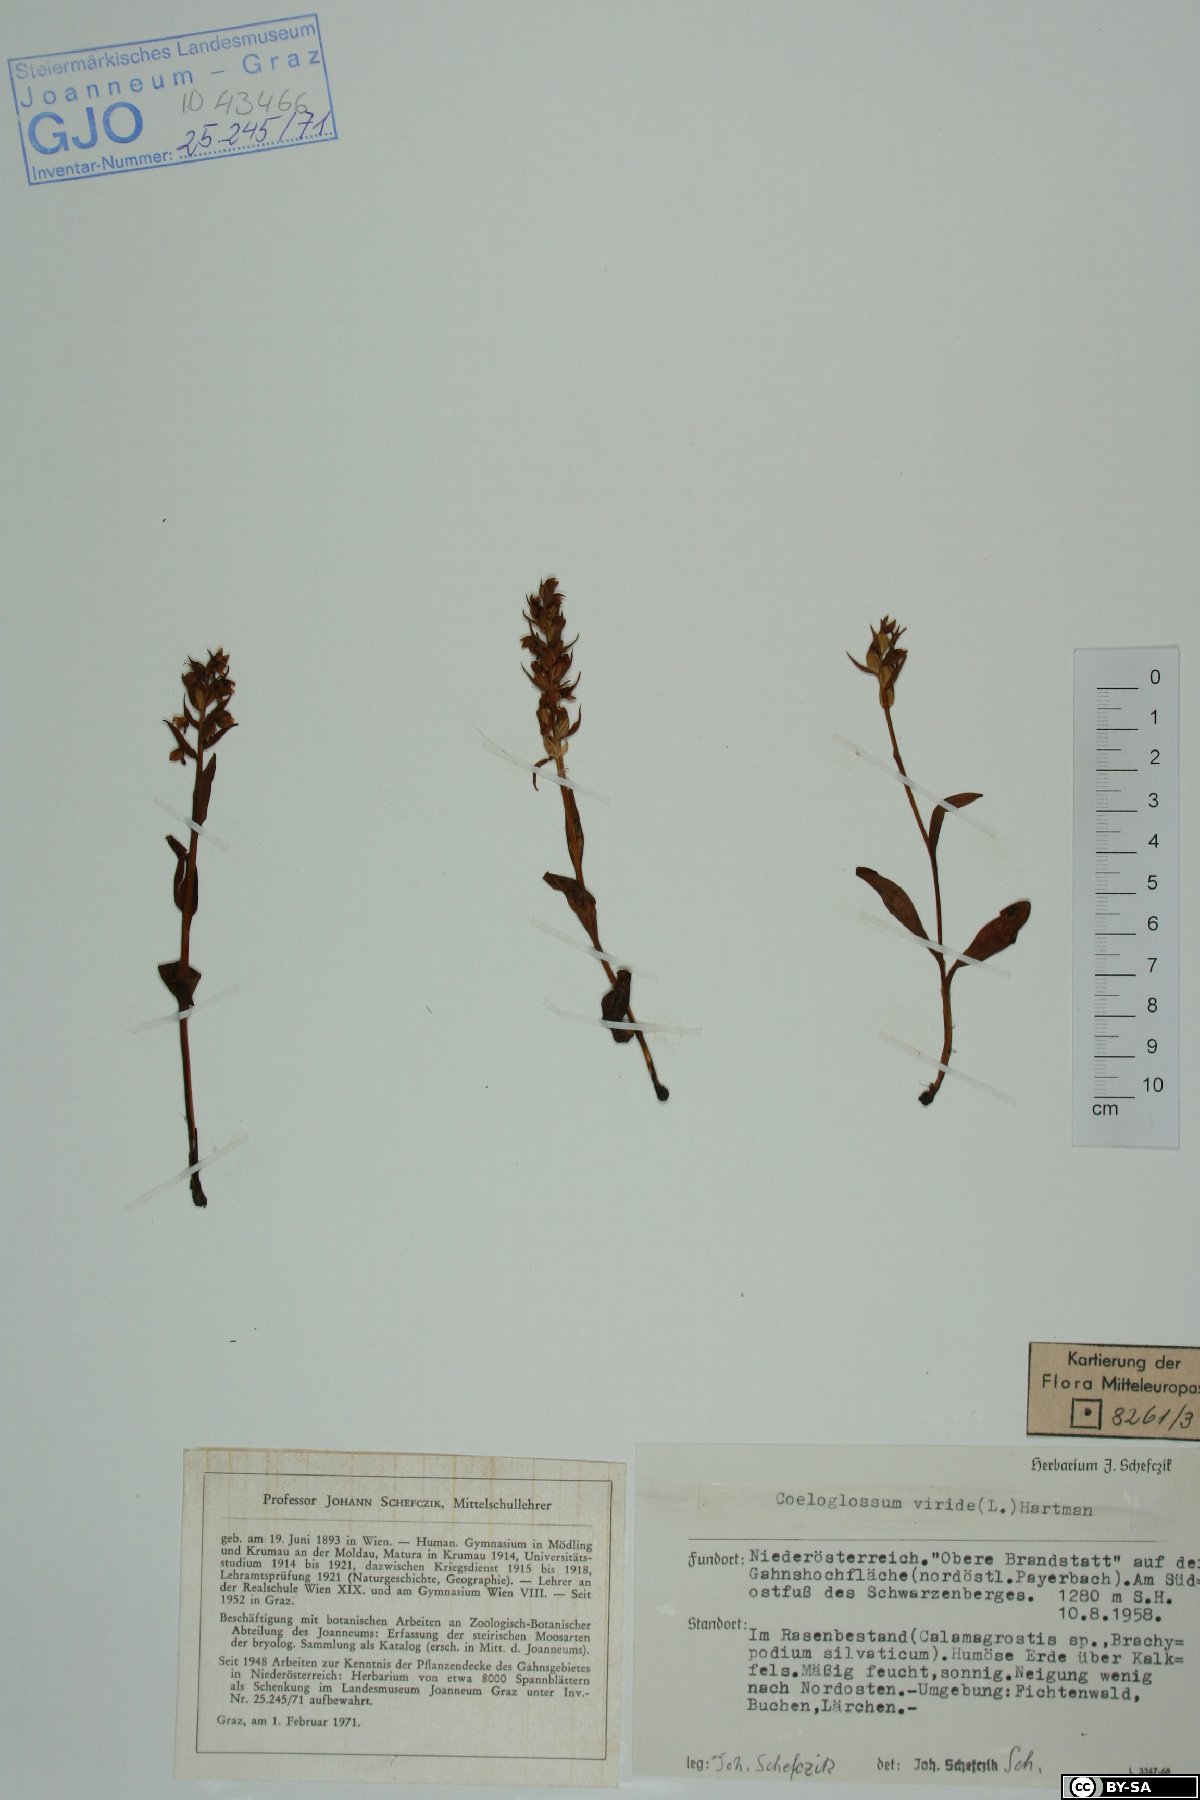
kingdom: Plantae
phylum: Tracheophyta
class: Liliopsida
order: Asparagales
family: Orchidaceae
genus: Dactylorhiza
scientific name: Dactylorhiza viridis
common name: Longbract frog orchid
